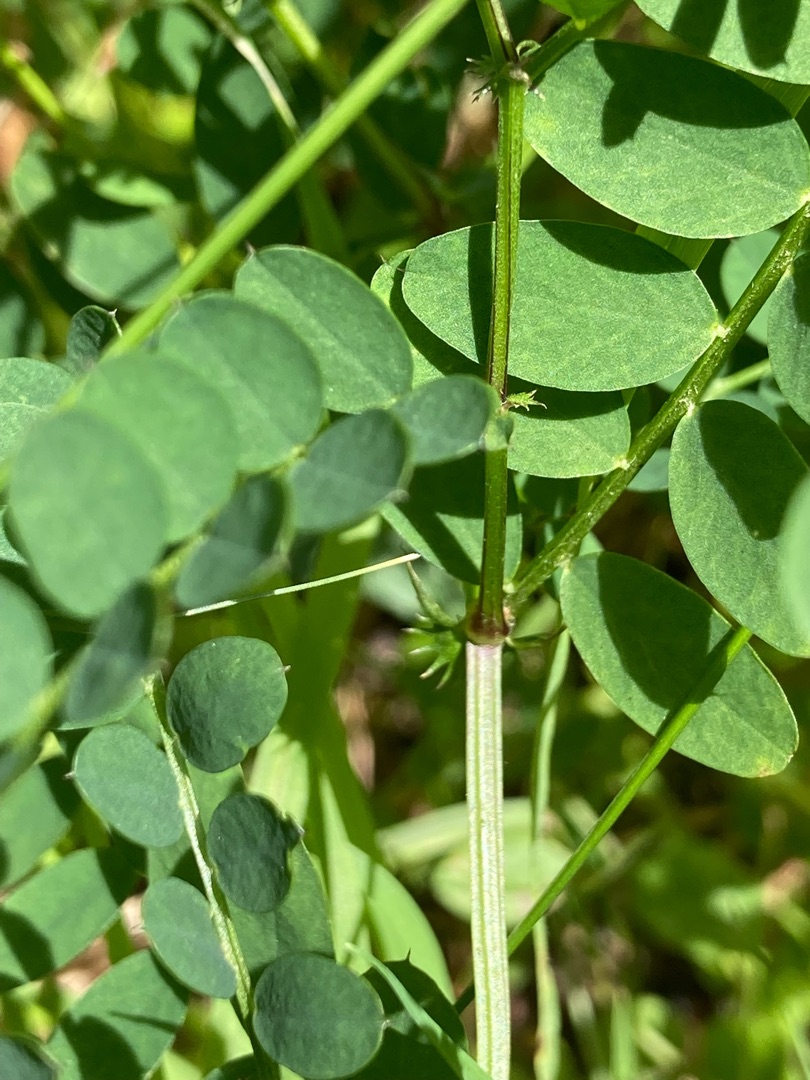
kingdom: Plantae
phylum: Tracheophyta
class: Magnoliopsida
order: Fabales
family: Fabaceae
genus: Vicia
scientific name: Vicia sylvatica
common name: Skov-vikke
